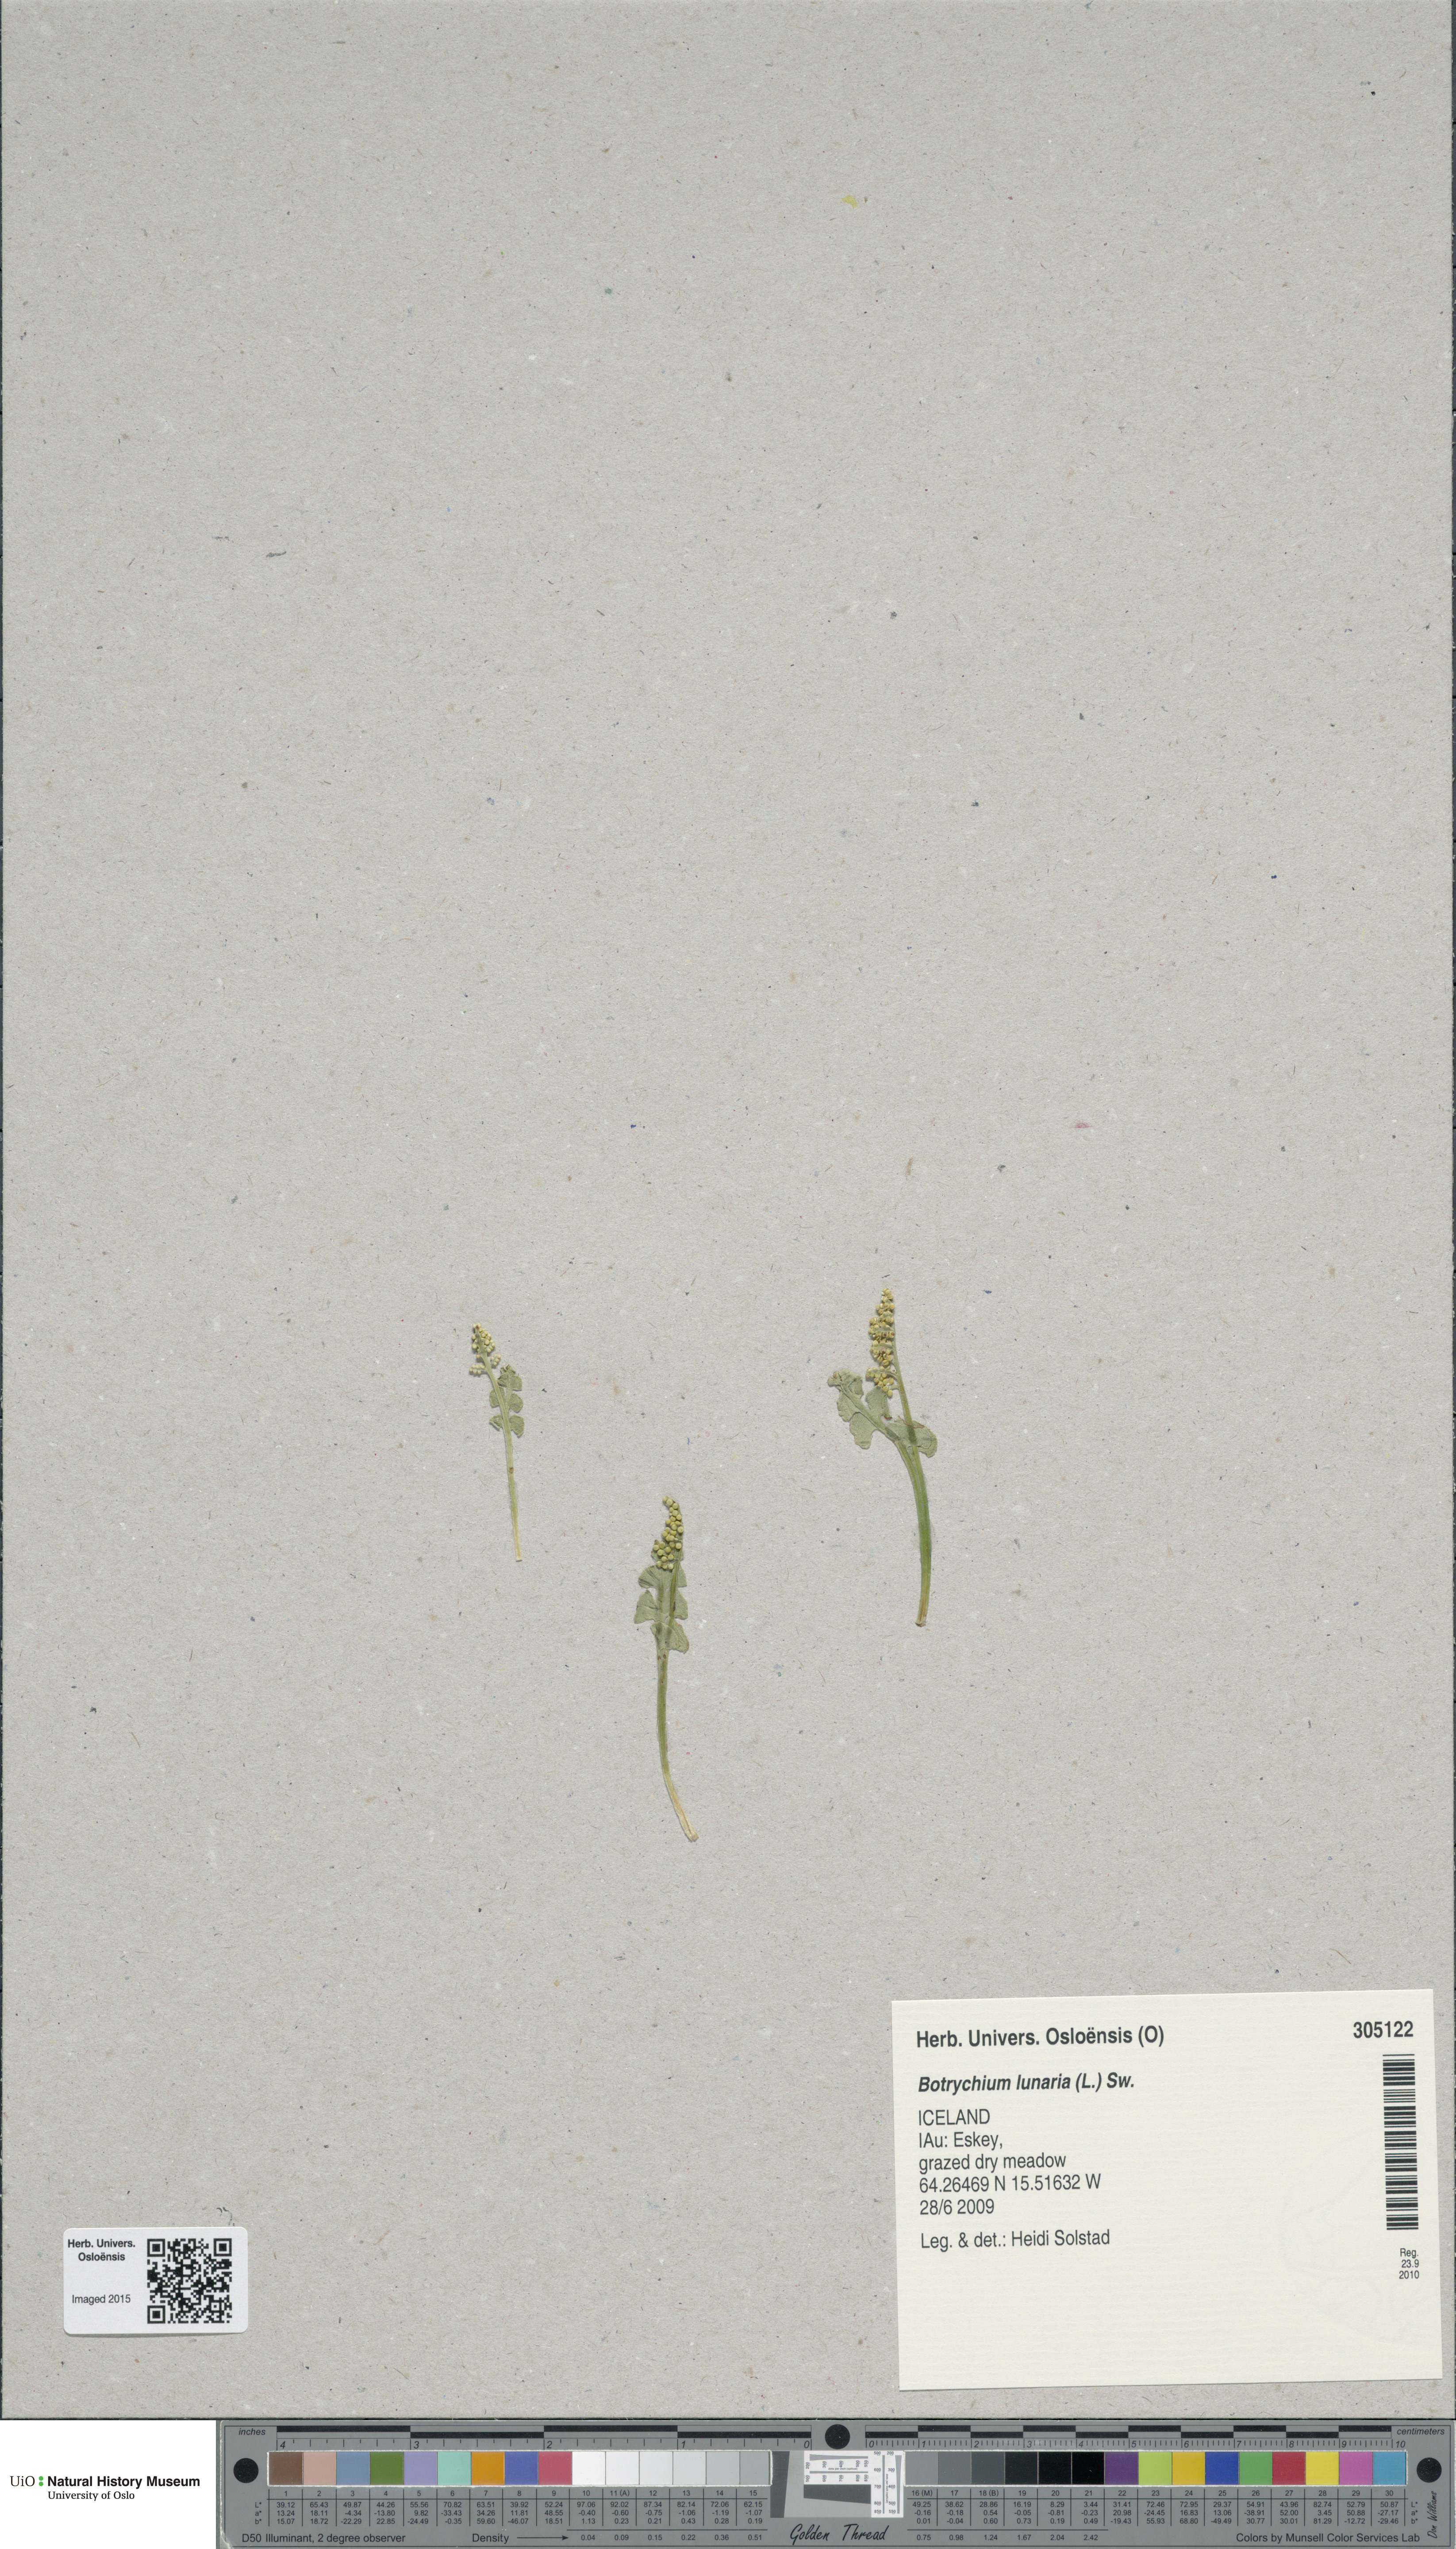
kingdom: Plantae
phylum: Tracheophyta
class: Polypodiopsida
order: Ophioglossales
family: Ophioglossaceae
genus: Botrychium
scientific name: Botrychium lunaria
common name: Moonwort
